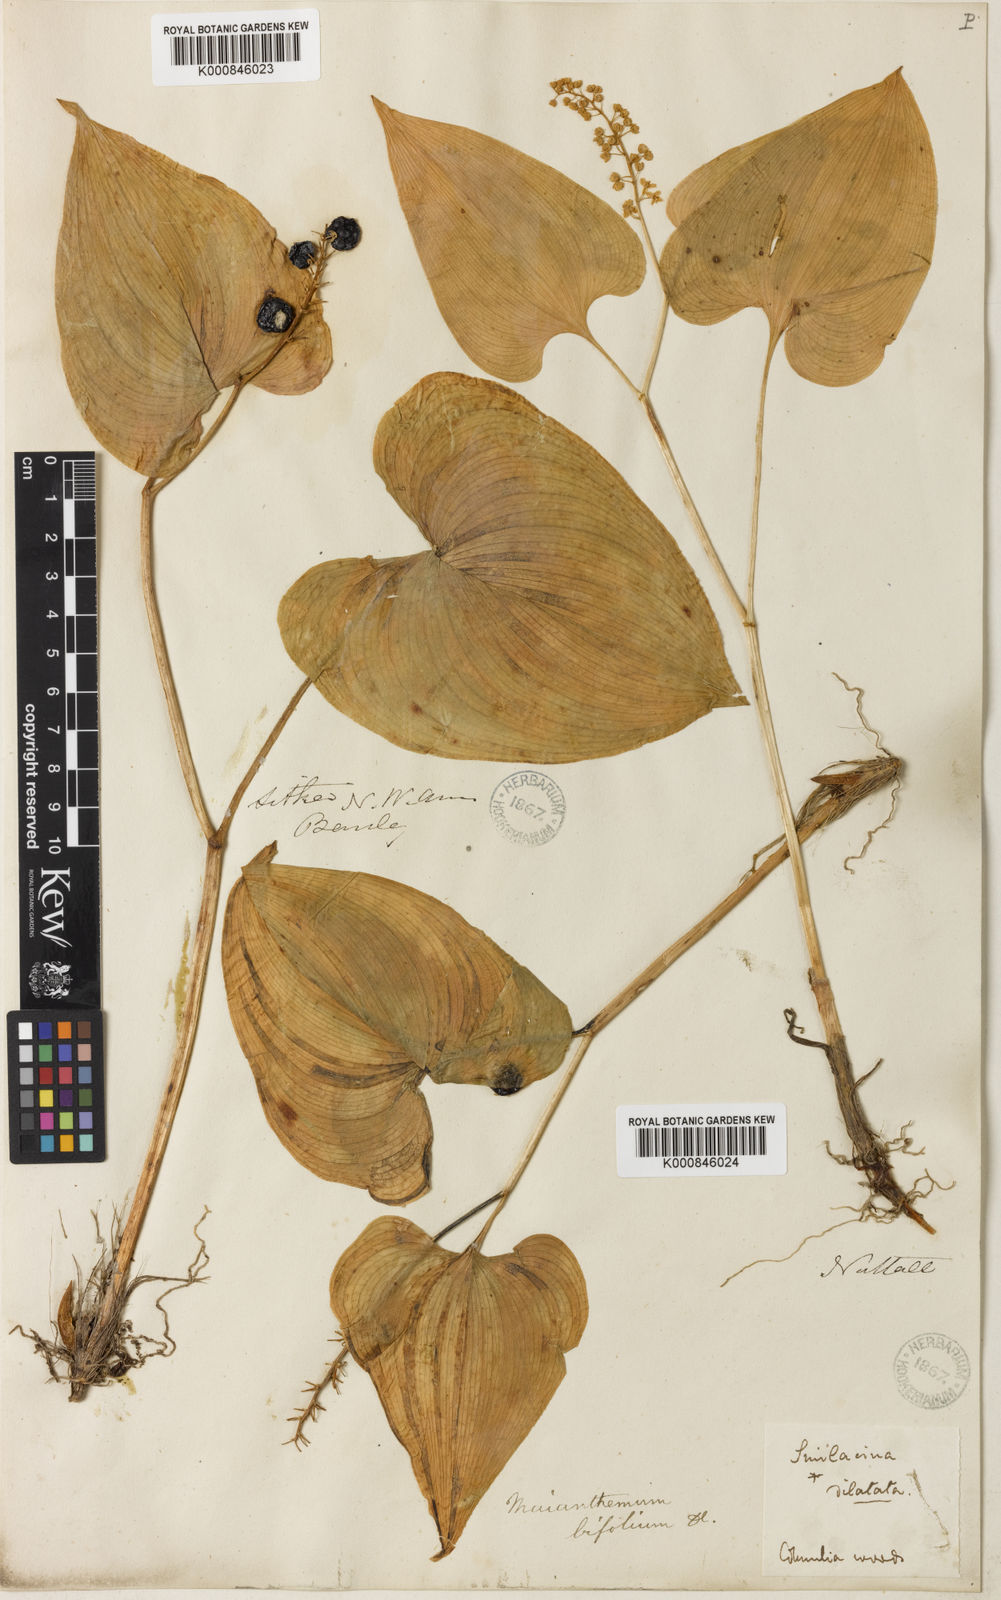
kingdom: Plantae
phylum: Tracheophyta
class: Liliopsida
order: Asparagales
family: Asparagaceae
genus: Maianthemum
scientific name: Maianthemum dilatatum
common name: False lily-of-the-valley
